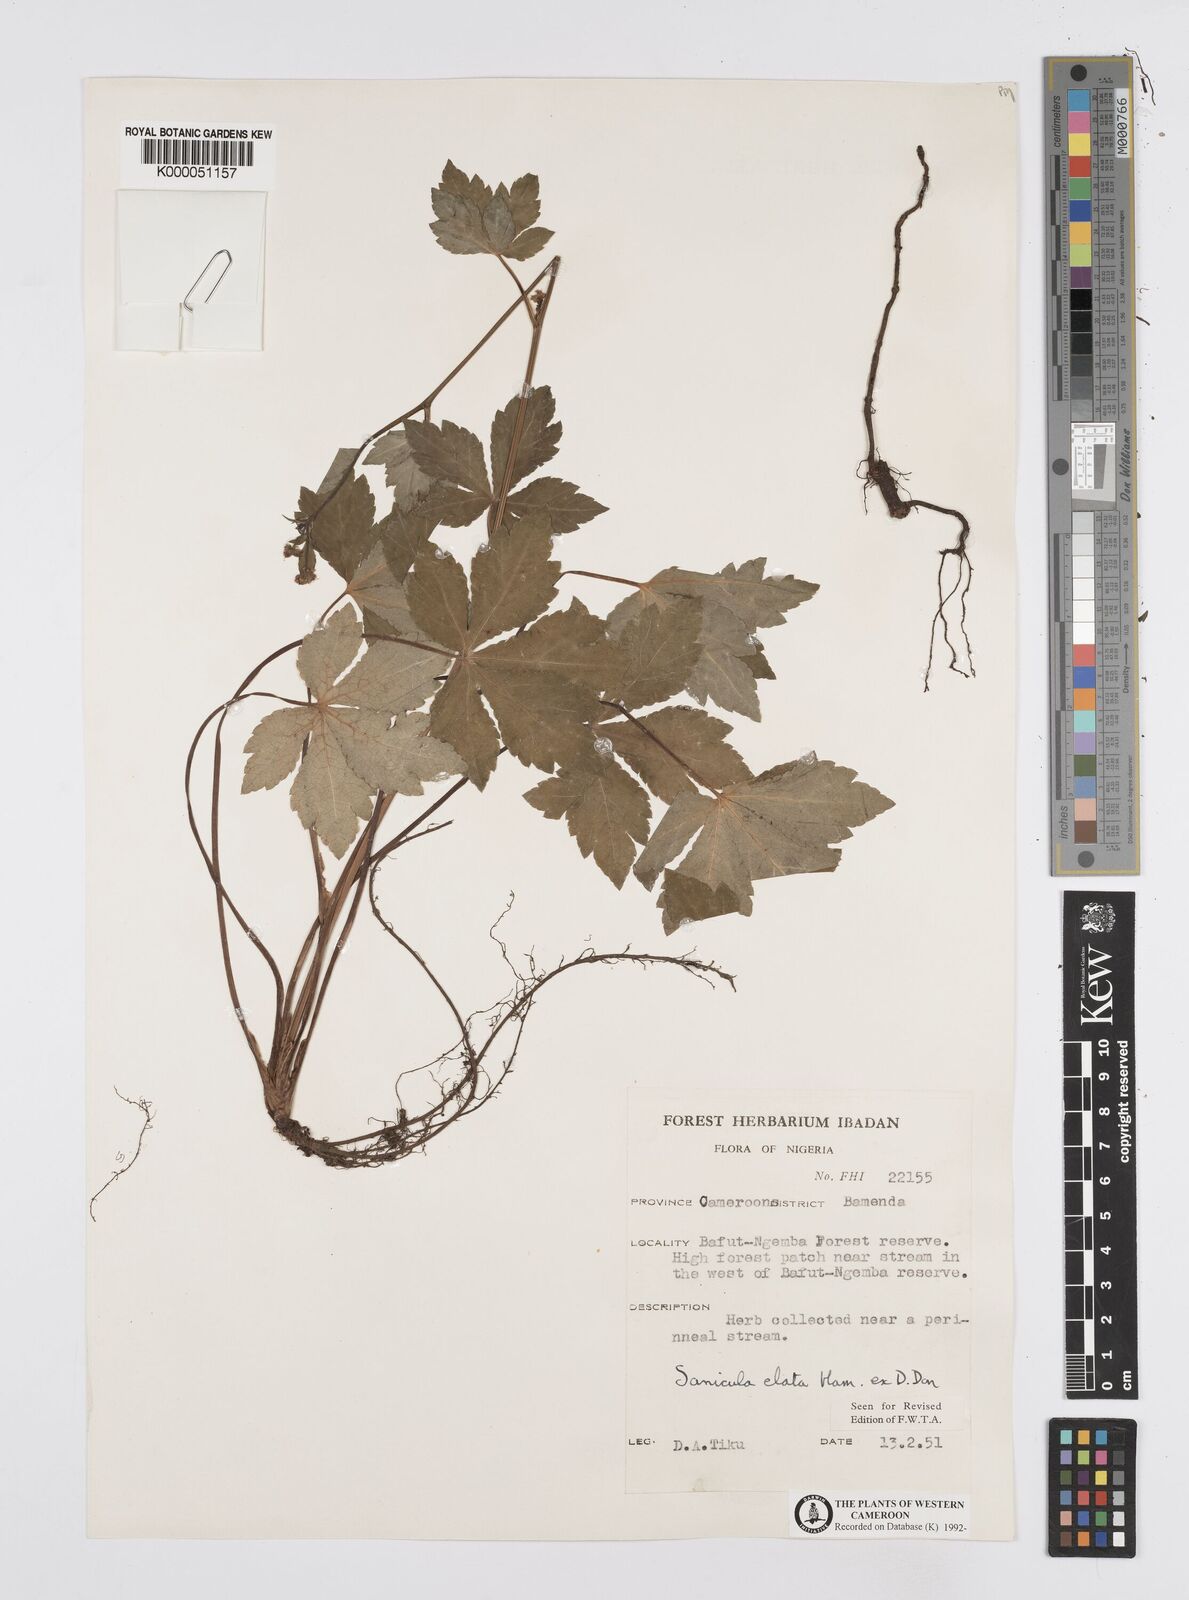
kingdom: Plantae
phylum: Tracheophyta
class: Magnoliopsida
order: Apiales
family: Apiaceae
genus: Sanicula
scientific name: Sanicula
